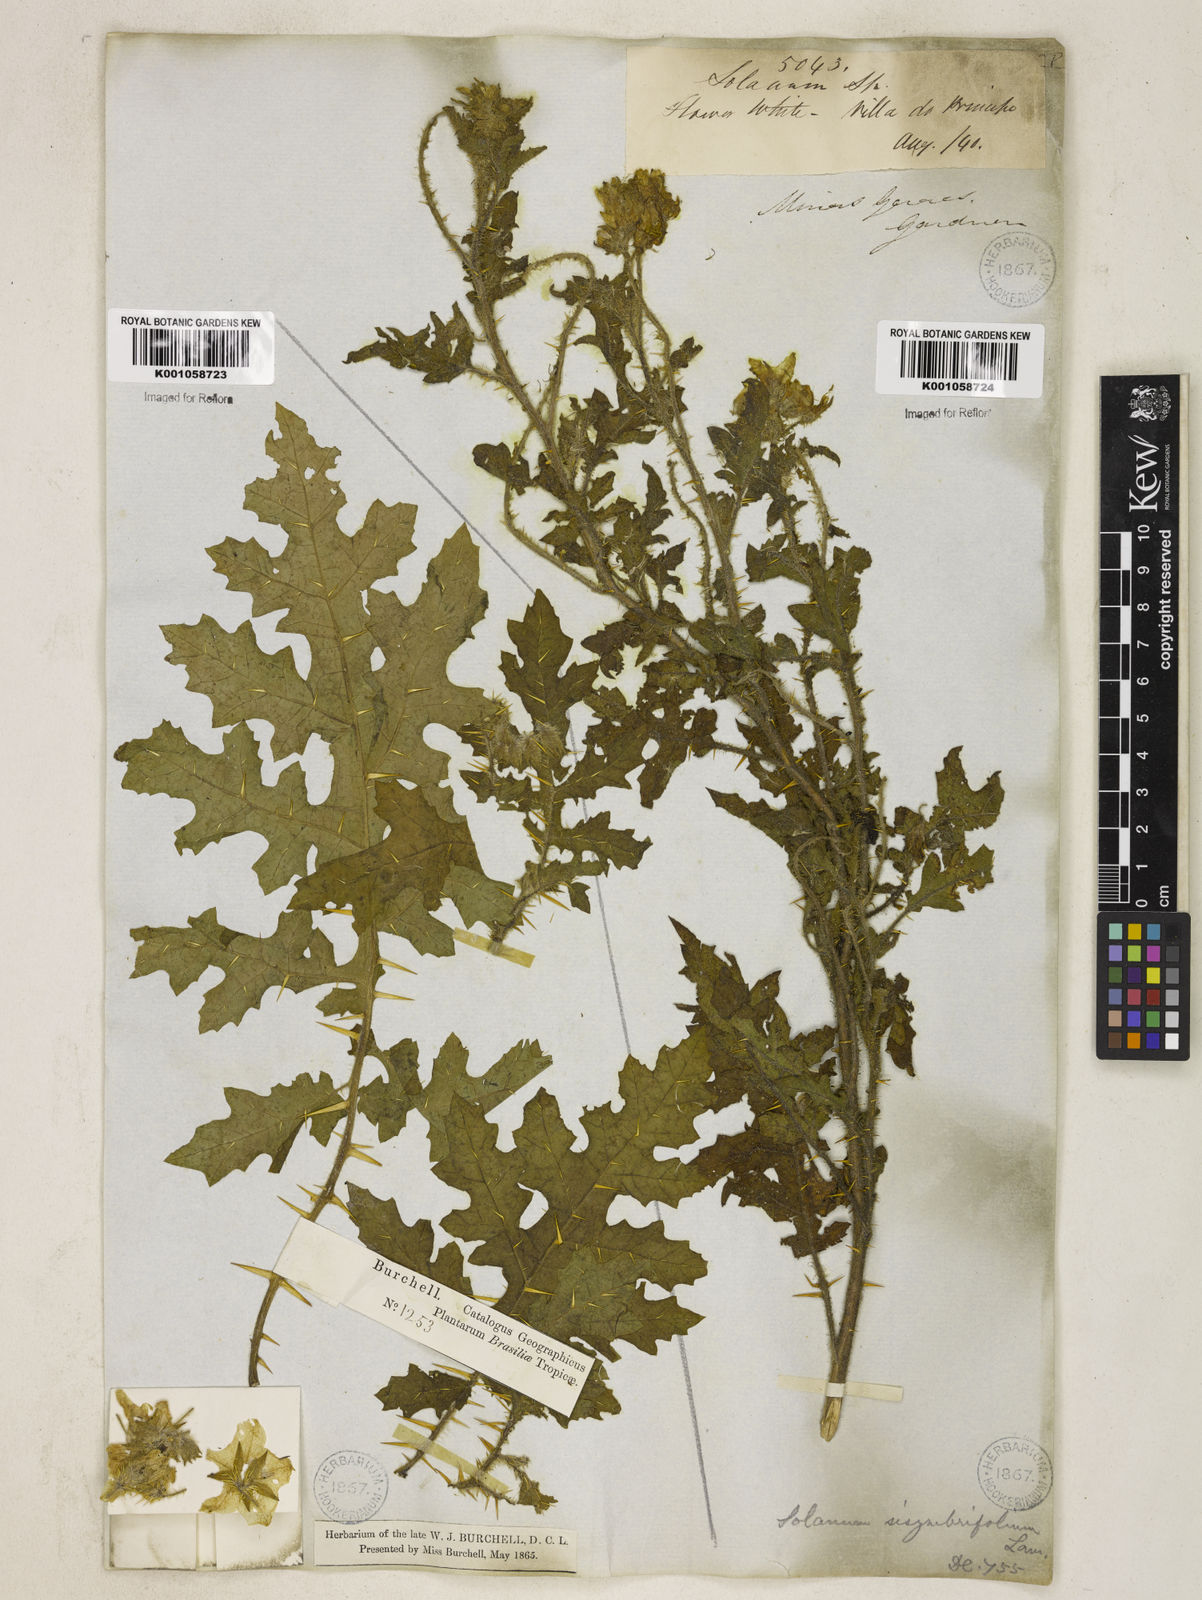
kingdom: Plantae
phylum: Tracheophyta
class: Magnoliopsida
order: Solanales
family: Solanaceae
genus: Solanum
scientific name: Solanum sisymbriifolium
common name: Red buffalo-bur
